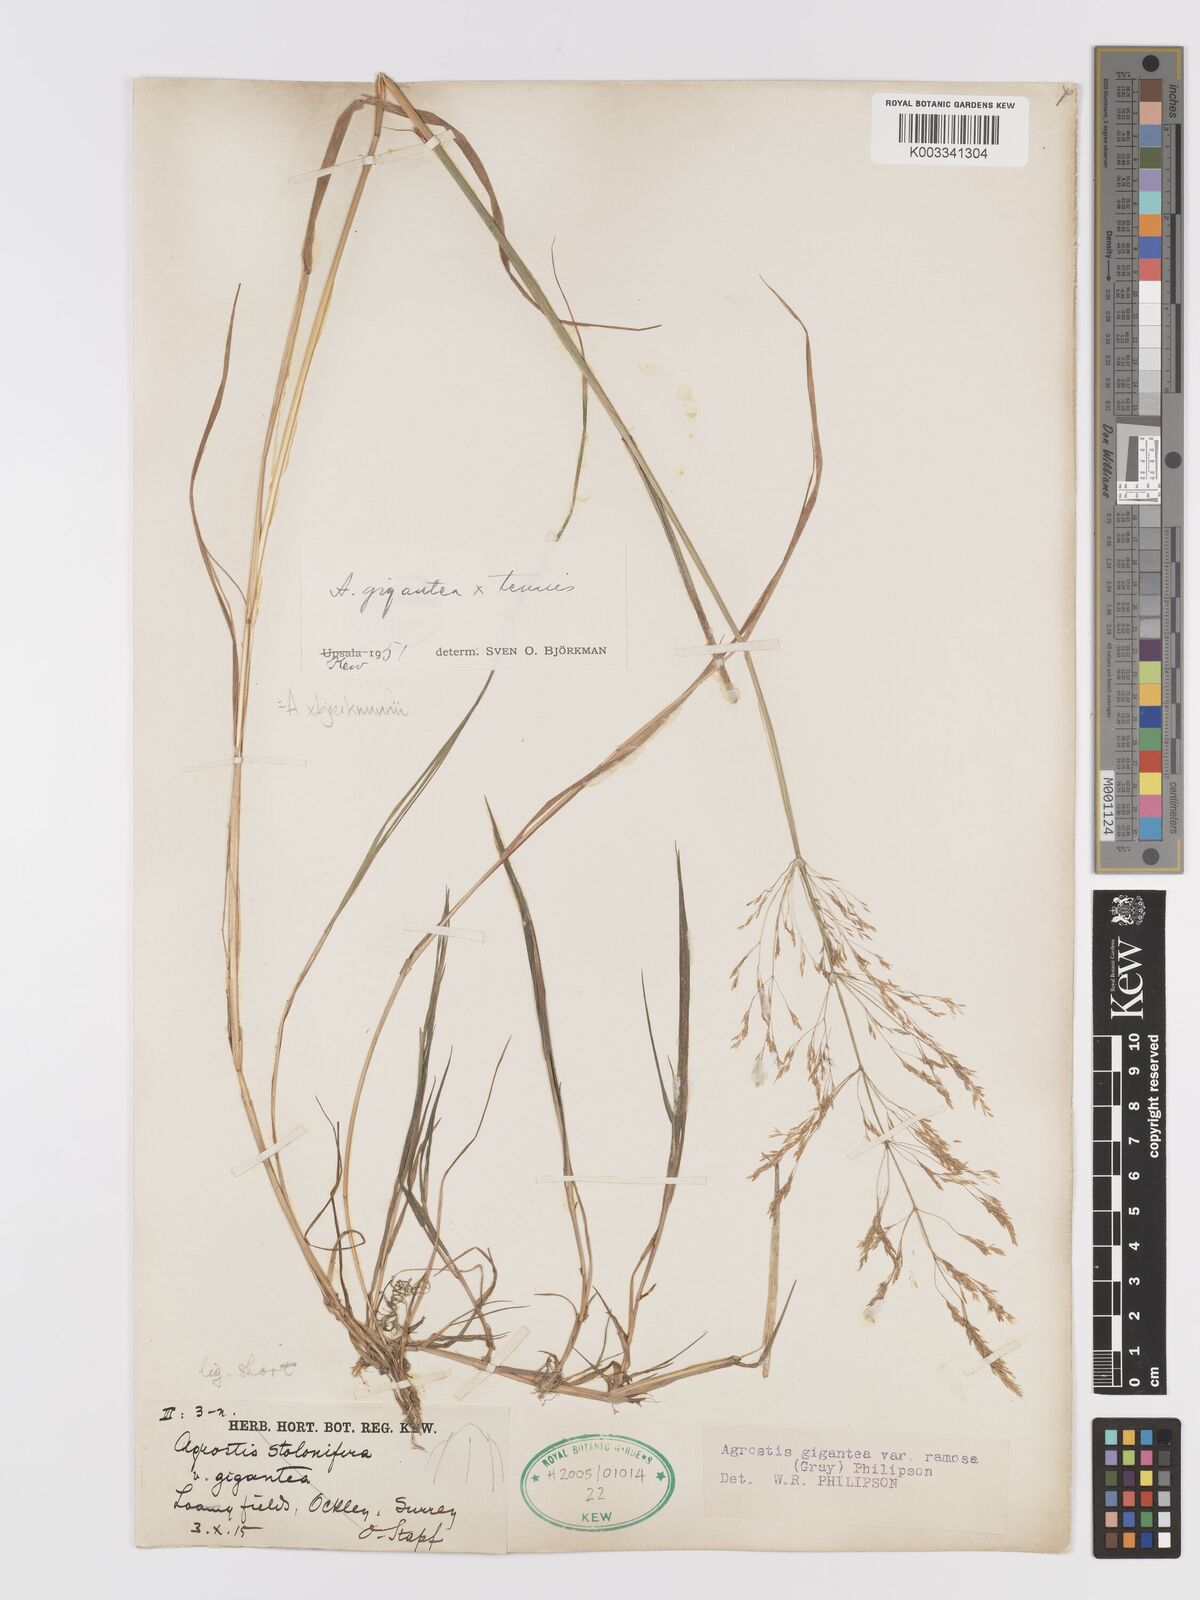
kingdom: Plantae
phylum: Tracheophyta
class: Liliopsida
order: Poales
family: Poaceae
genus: Agrostis
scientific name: Agrostis gigantea
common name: Black bent
